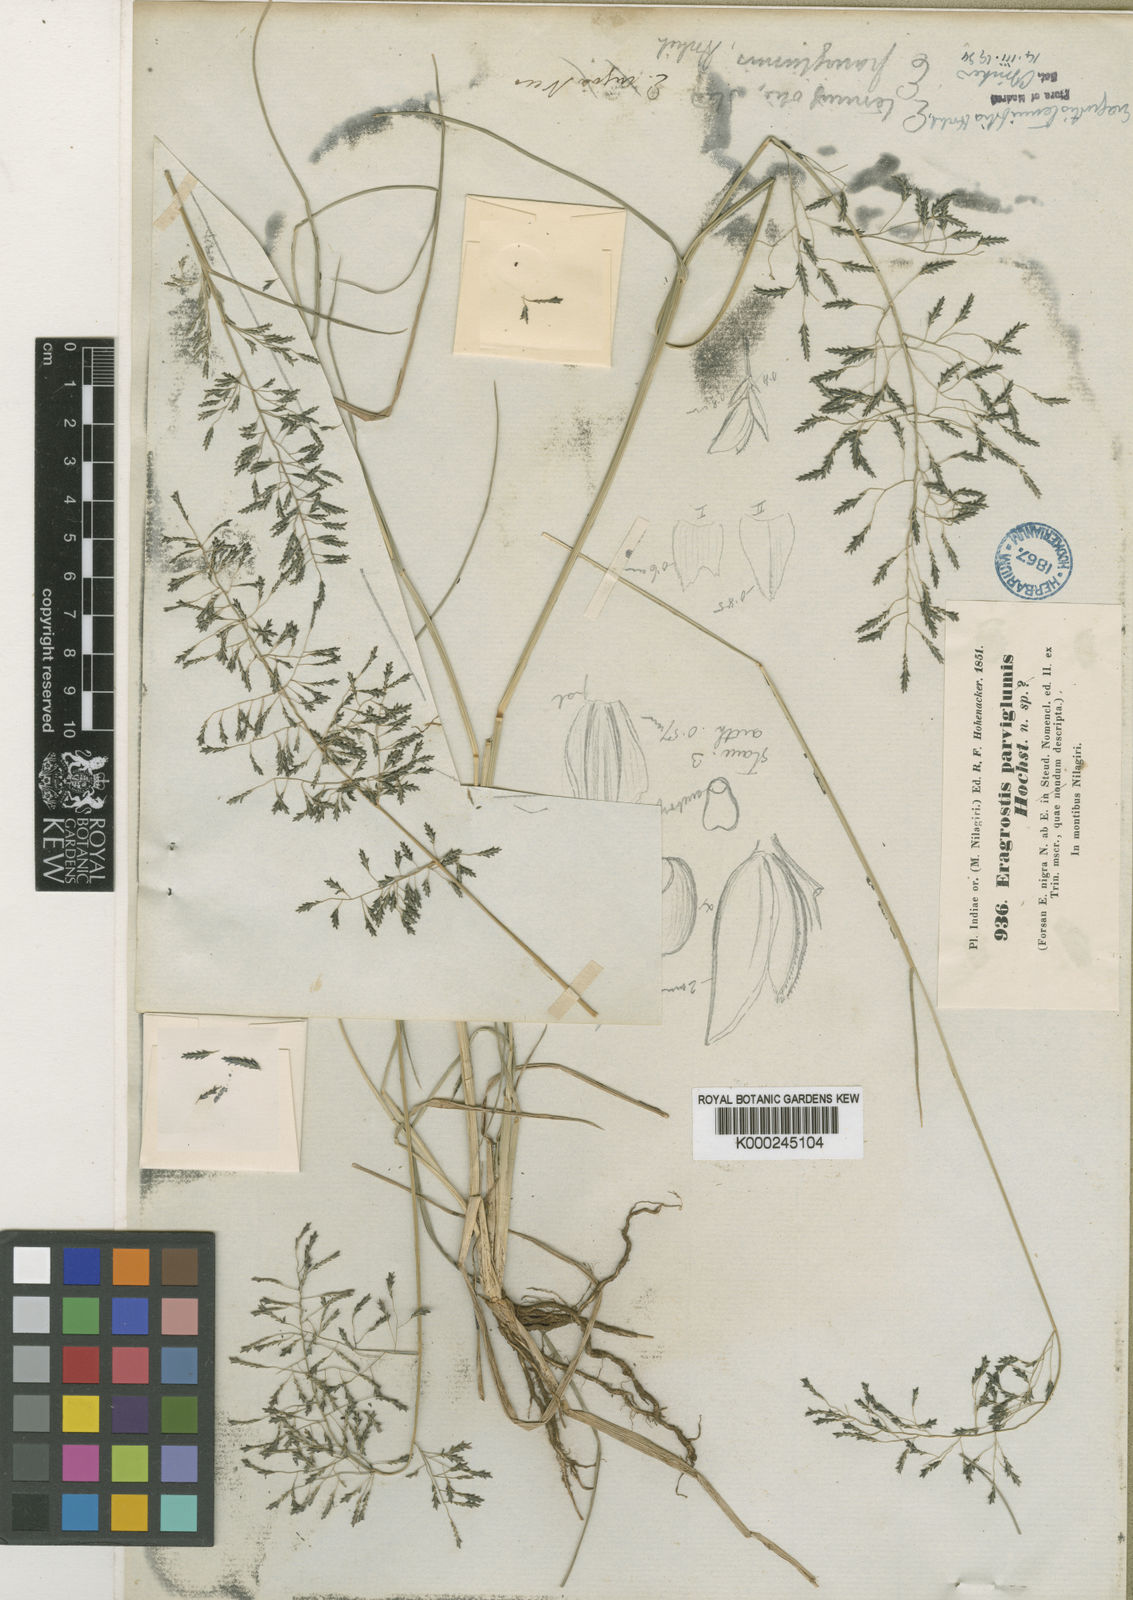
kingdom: Plantae
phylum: Tracheophyta
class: Liliopsida
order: Poales
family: Poaceae
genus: Eragrostis
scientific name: Eragrostis tenuifolia
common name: Elastic grass
